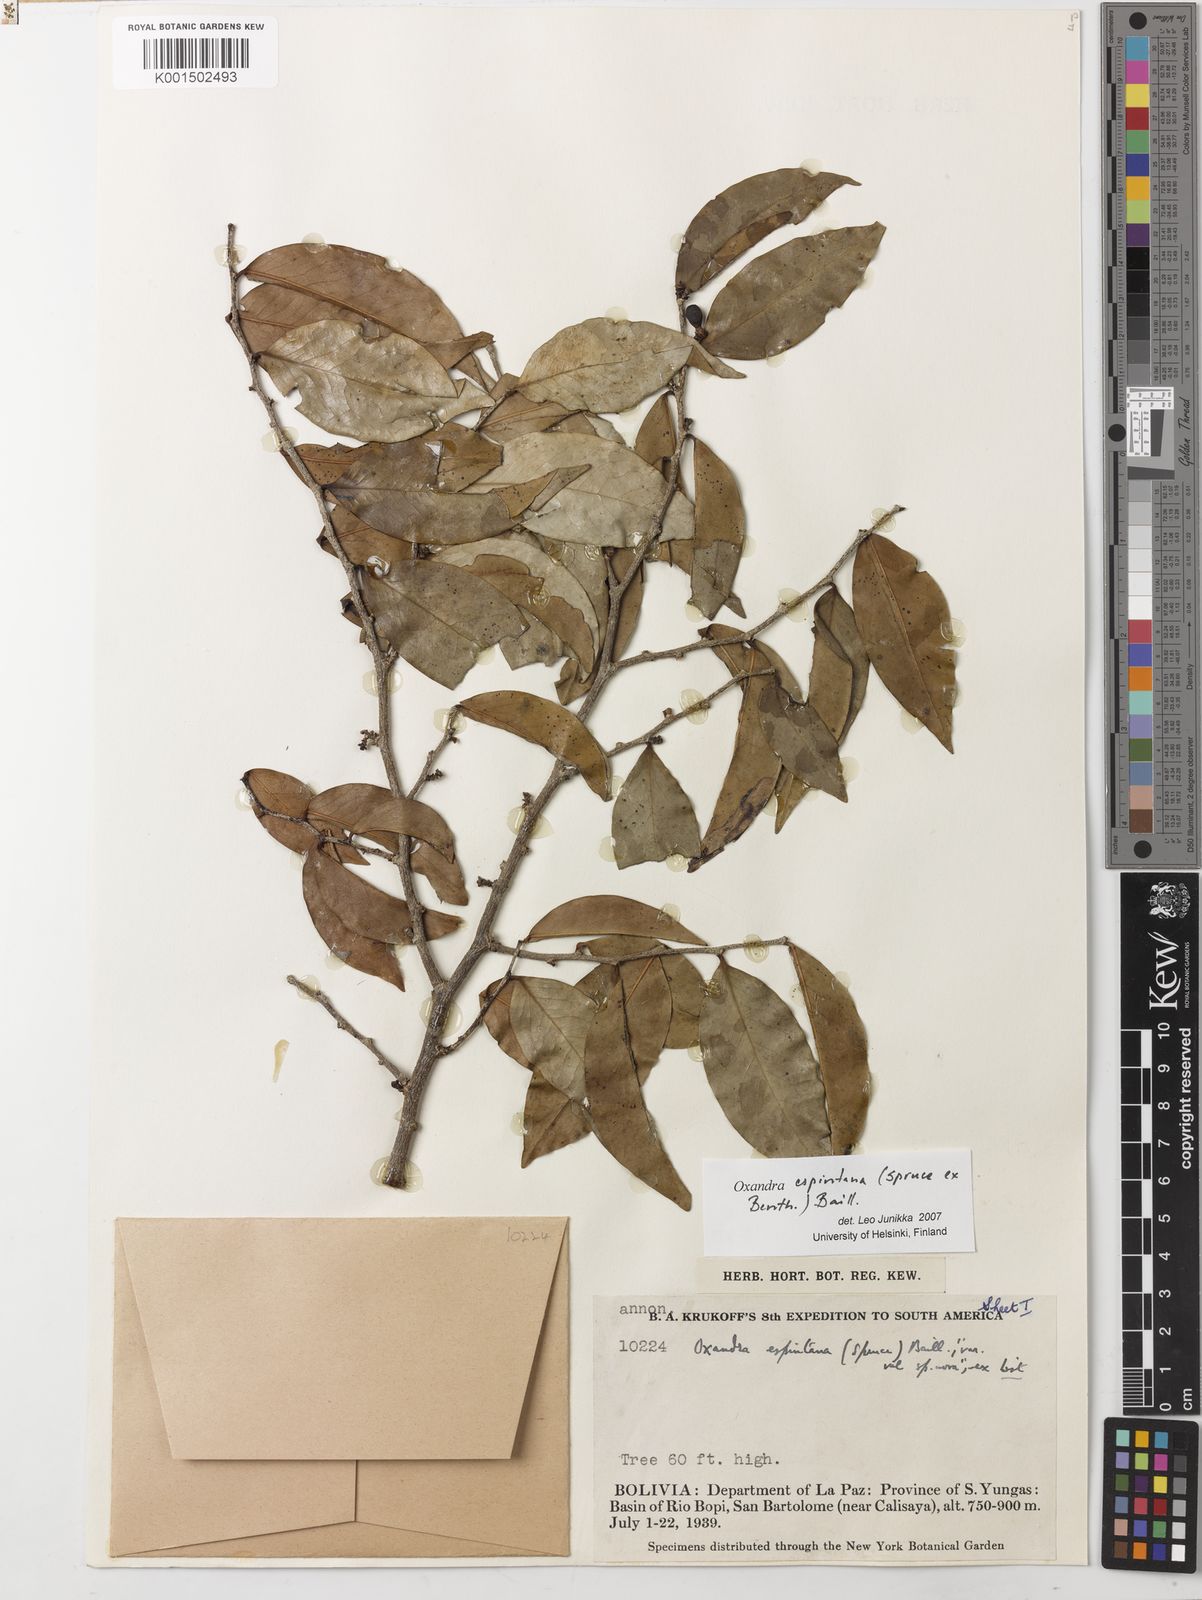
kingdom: Plantae
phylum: Tracheophyta
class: Magnoliopsida
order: Magnoliales
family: Annonaceae
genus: Oxandra
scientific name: Oxandra espintana
